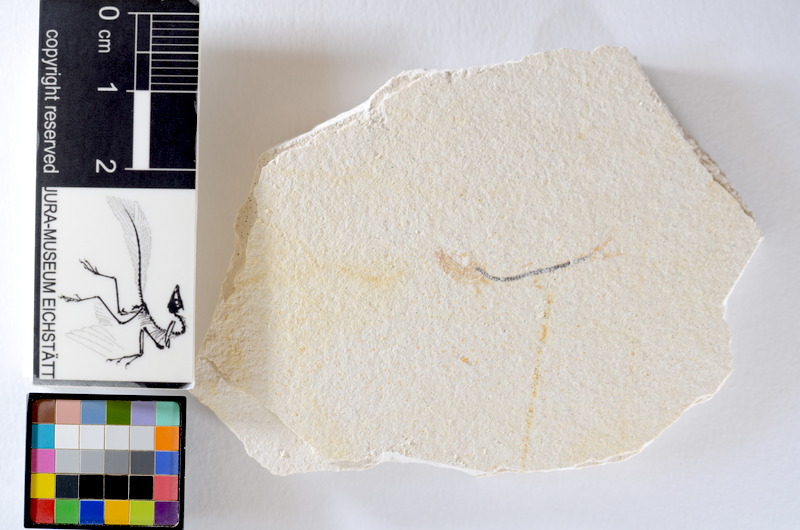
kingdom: Animalia
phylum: Chordata
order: Salmoniformes
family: Orthogonikleithridae
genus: Orthogonikleithrus
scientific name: Orthogonikleithrus hoelli
